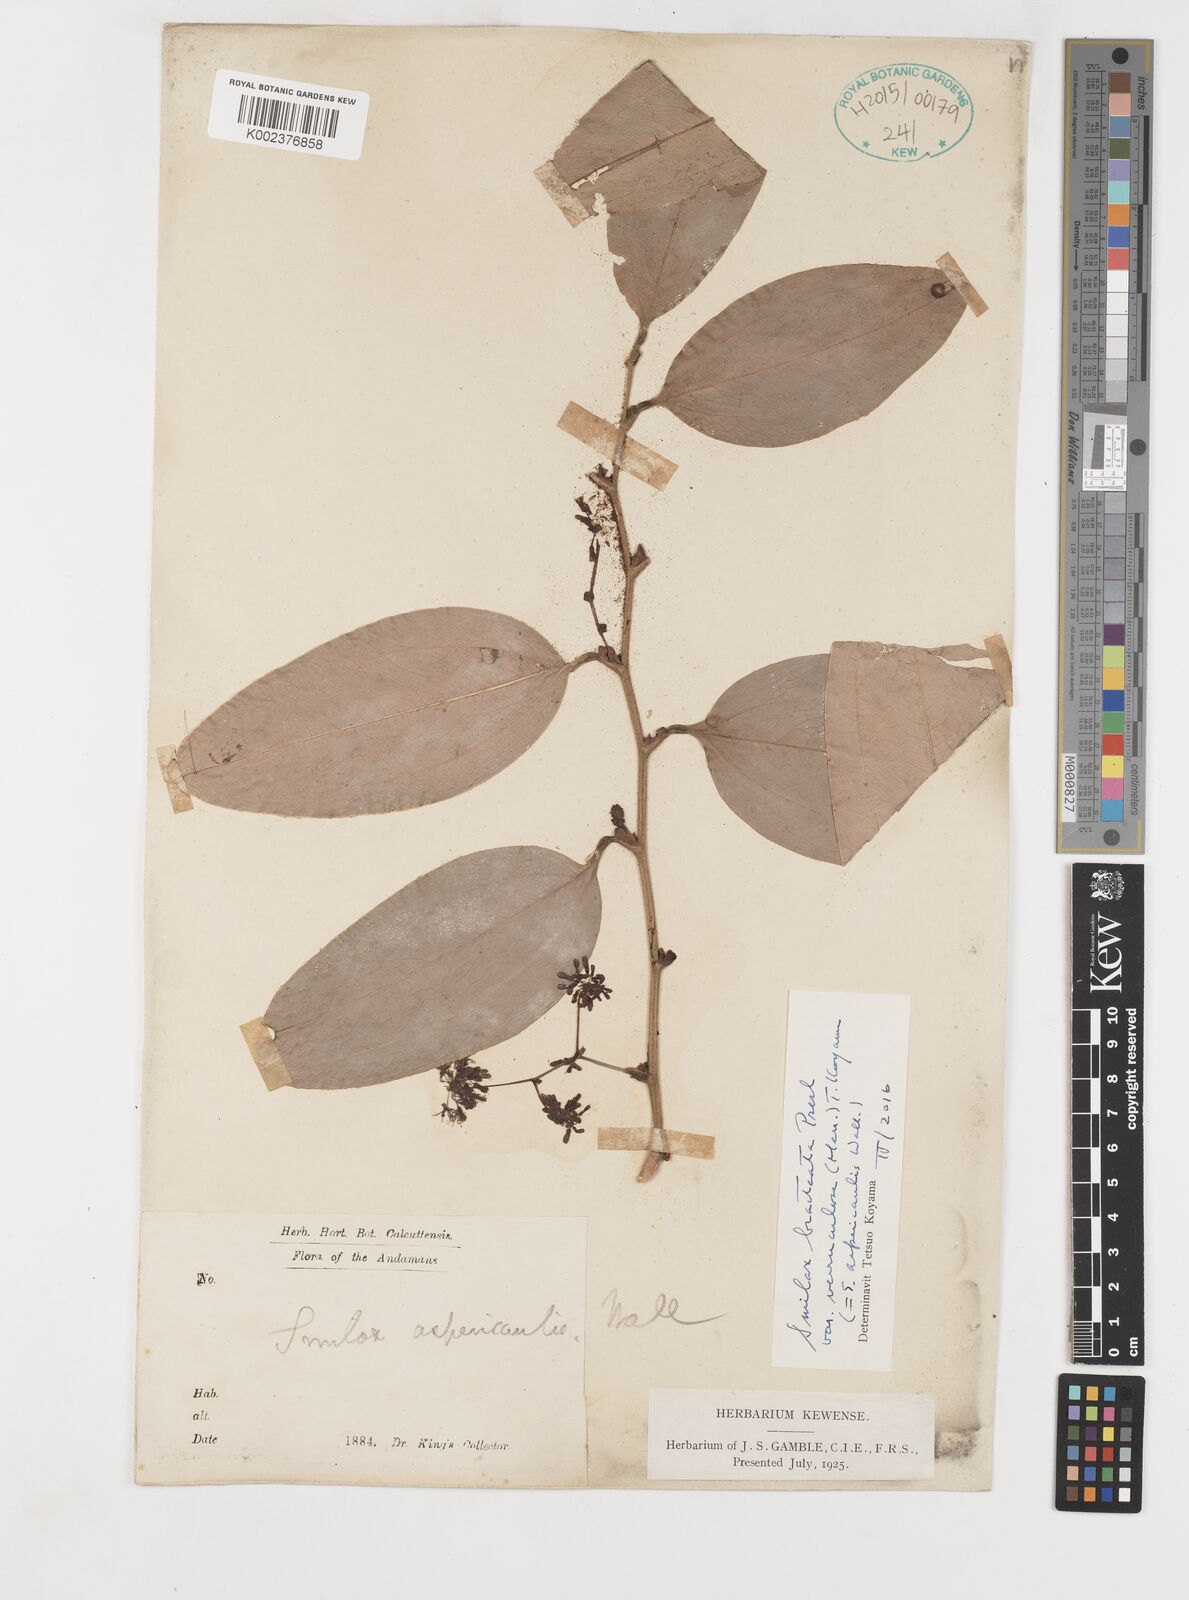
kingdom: Plantae
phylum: Tracheophyta
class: Liliopsida
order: Liliales
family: Smilacaceae
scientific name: Smilacaceae
